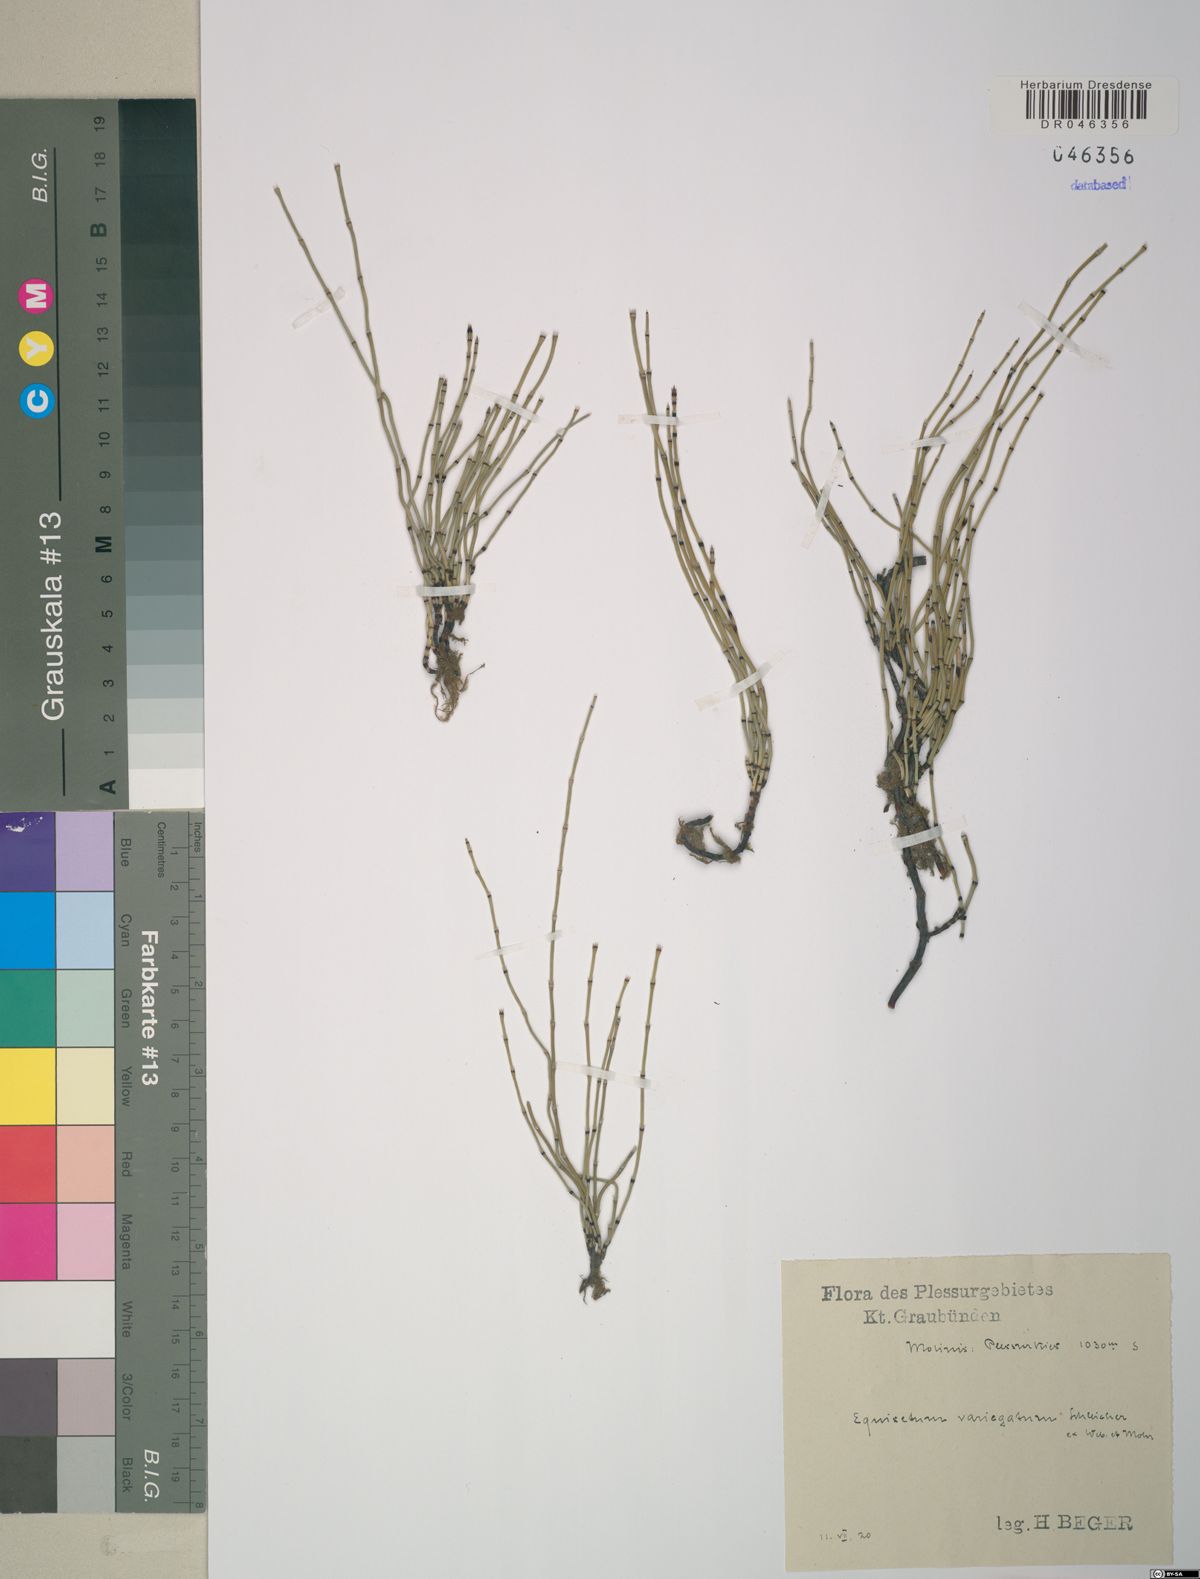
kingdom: Plantae
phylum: Tracheophyta
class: Polypodiopsida
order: Equisetales
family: Equisetaceae
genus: Equisetum
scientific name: Equisetum variegatum
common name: Variegated horsetail
